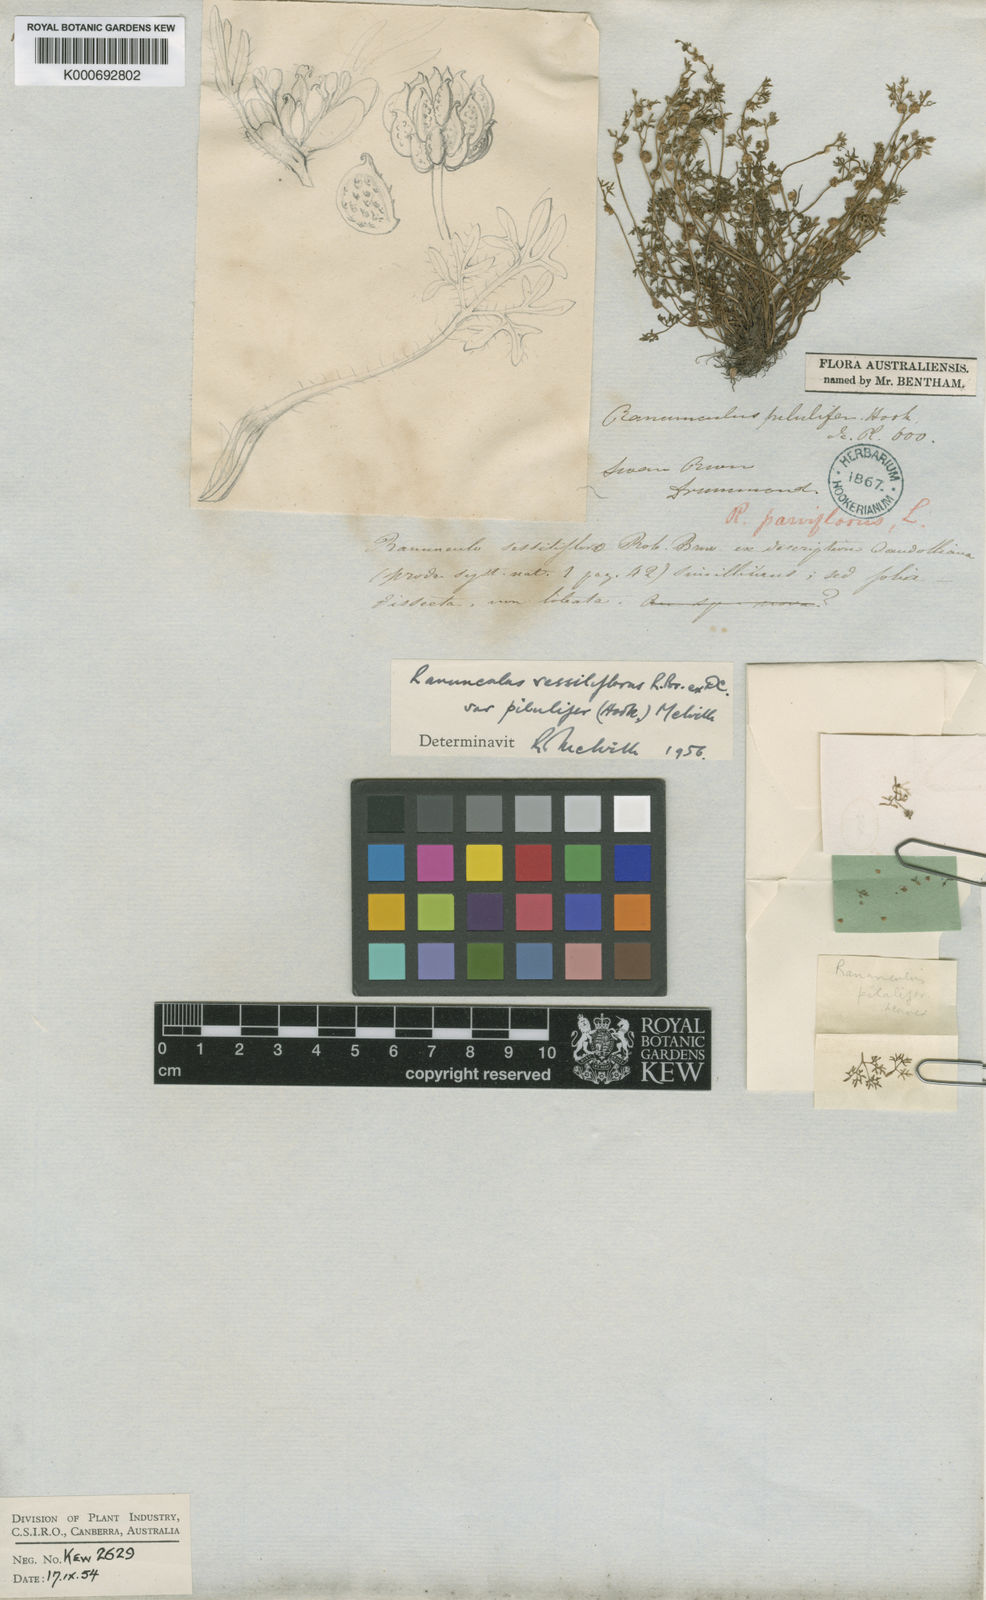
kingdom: Plantae
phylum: Tracheophyta
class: Magnoliopsida
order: Ranunculales
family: Ranunculaceae
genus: Ranunculus
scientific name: Ranunculus sessiliflorus
